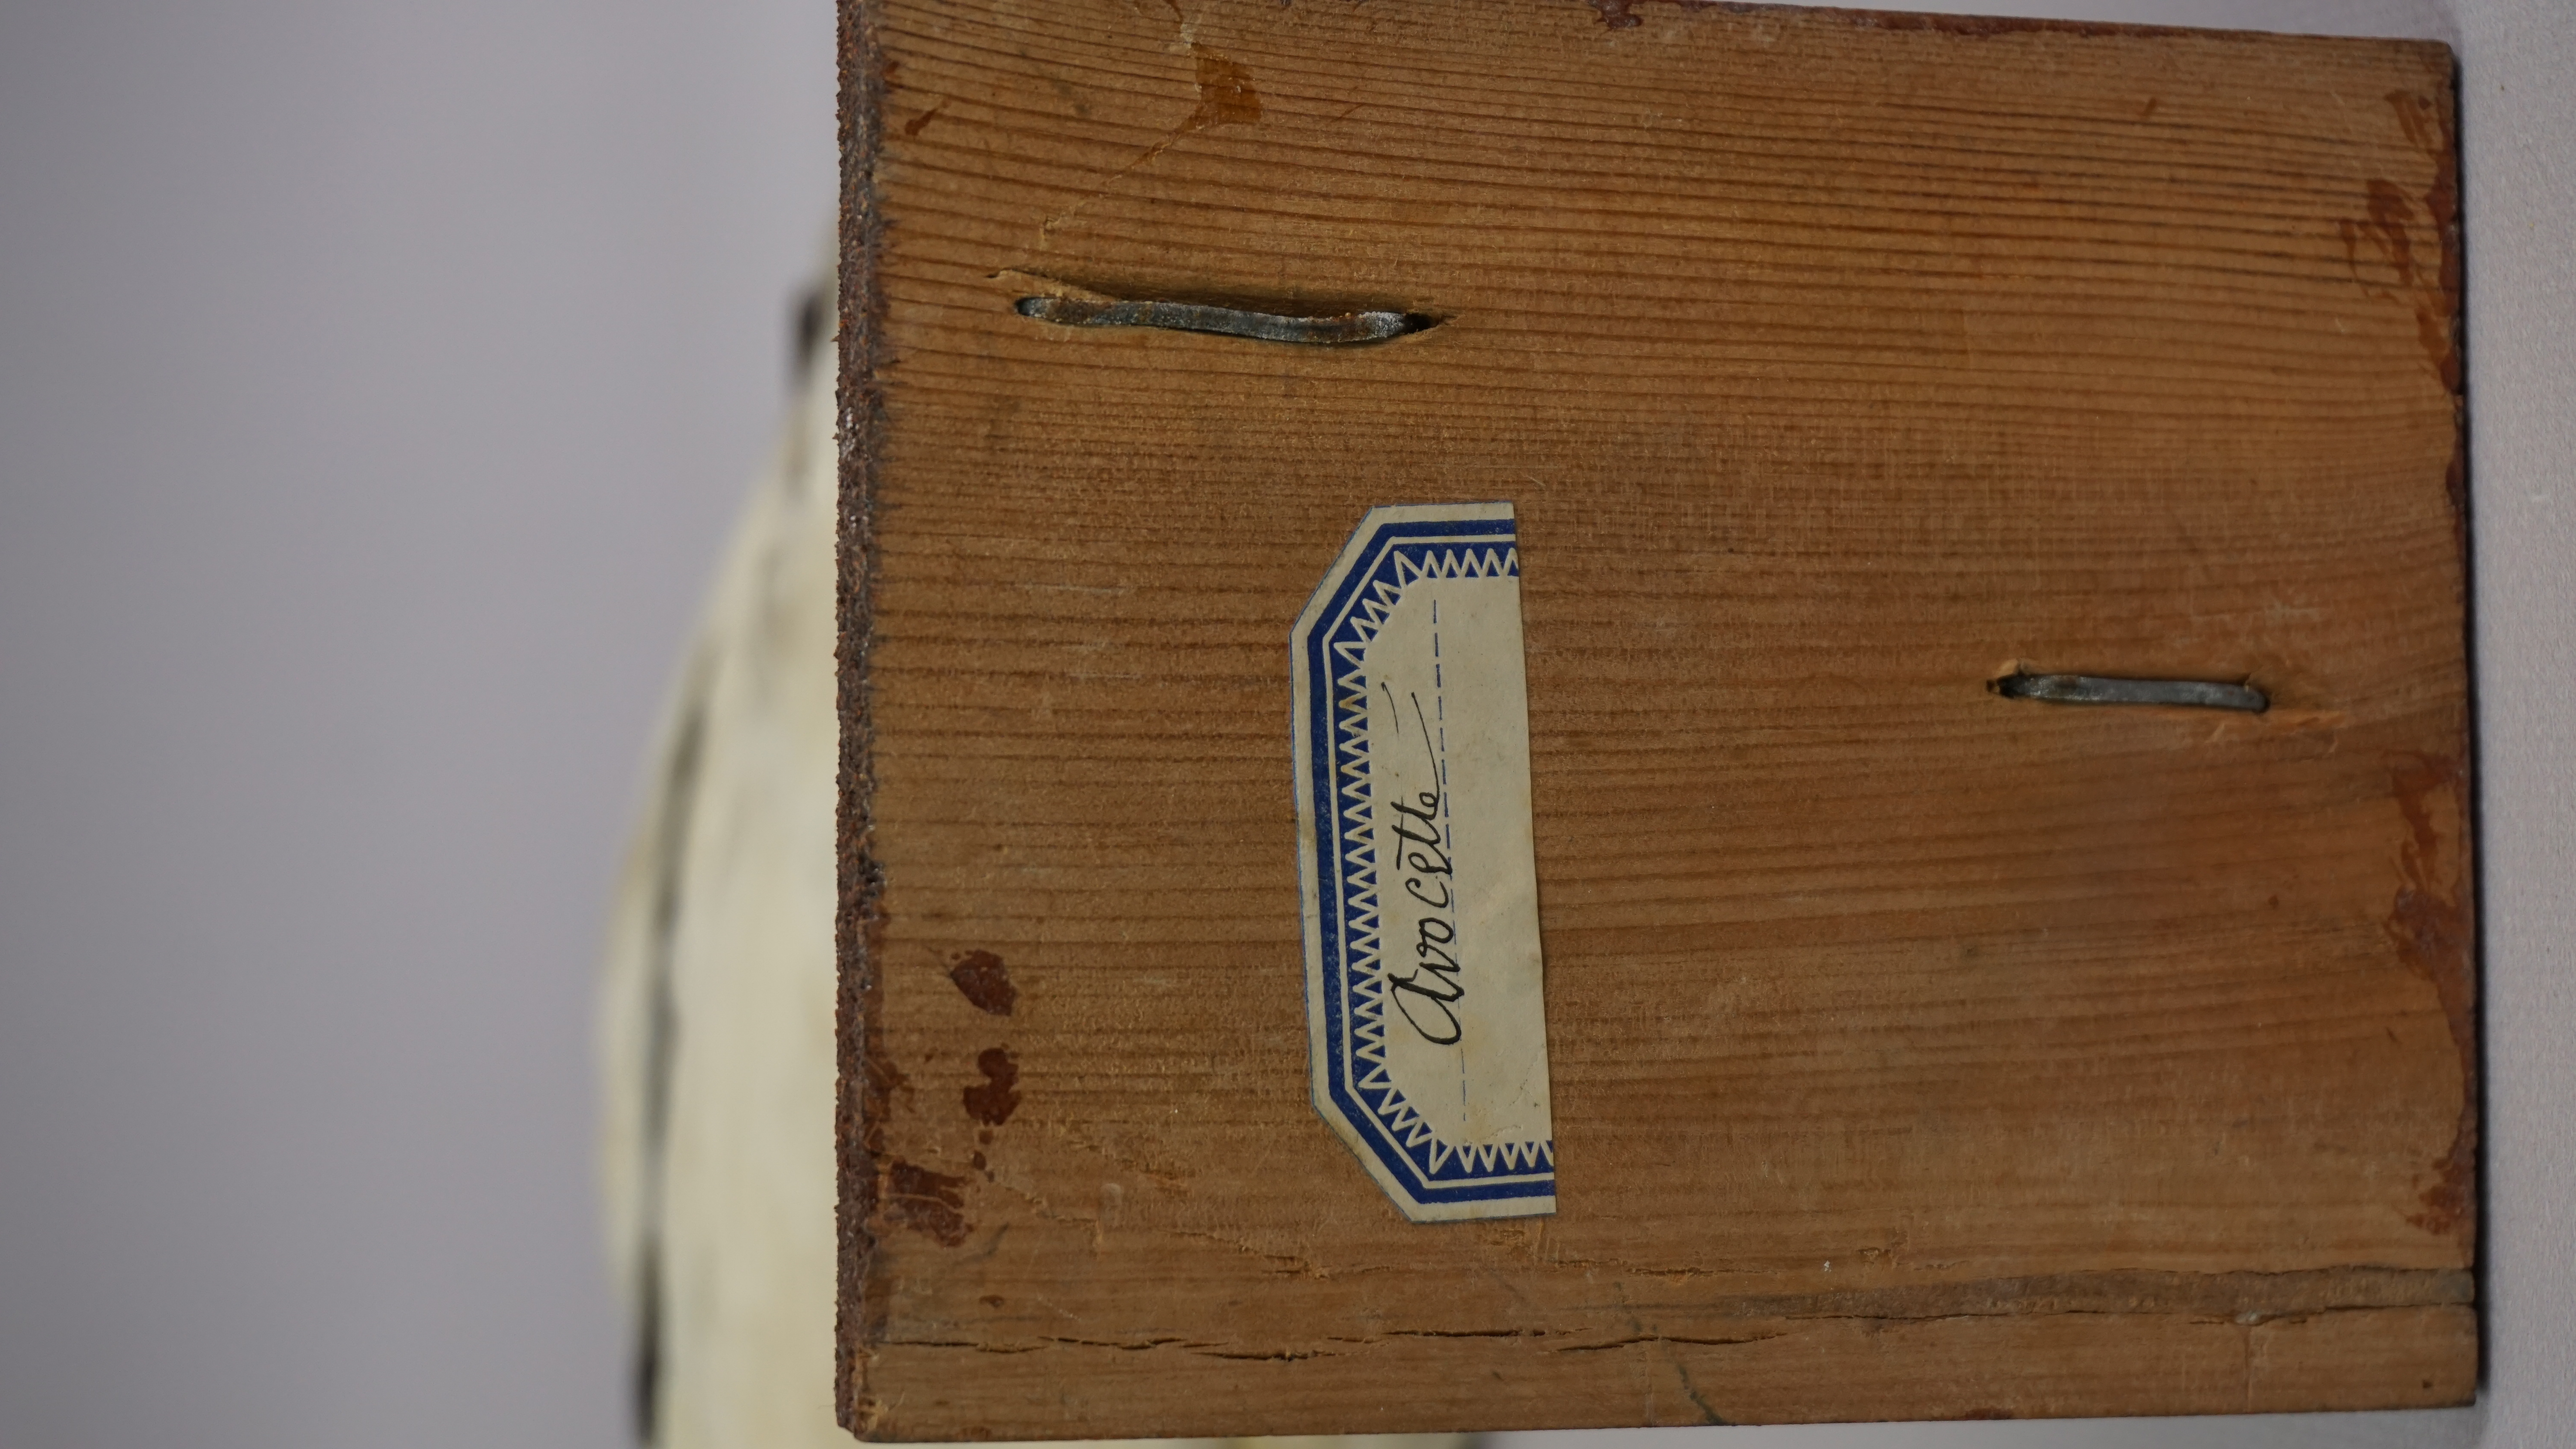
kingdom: Animalia
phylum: Chordata
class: Aves
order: Charadriiformes
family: Recurvirostridae
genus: Recurvirostra
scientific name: Recurvirostra avosetta
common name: Pied avocet
